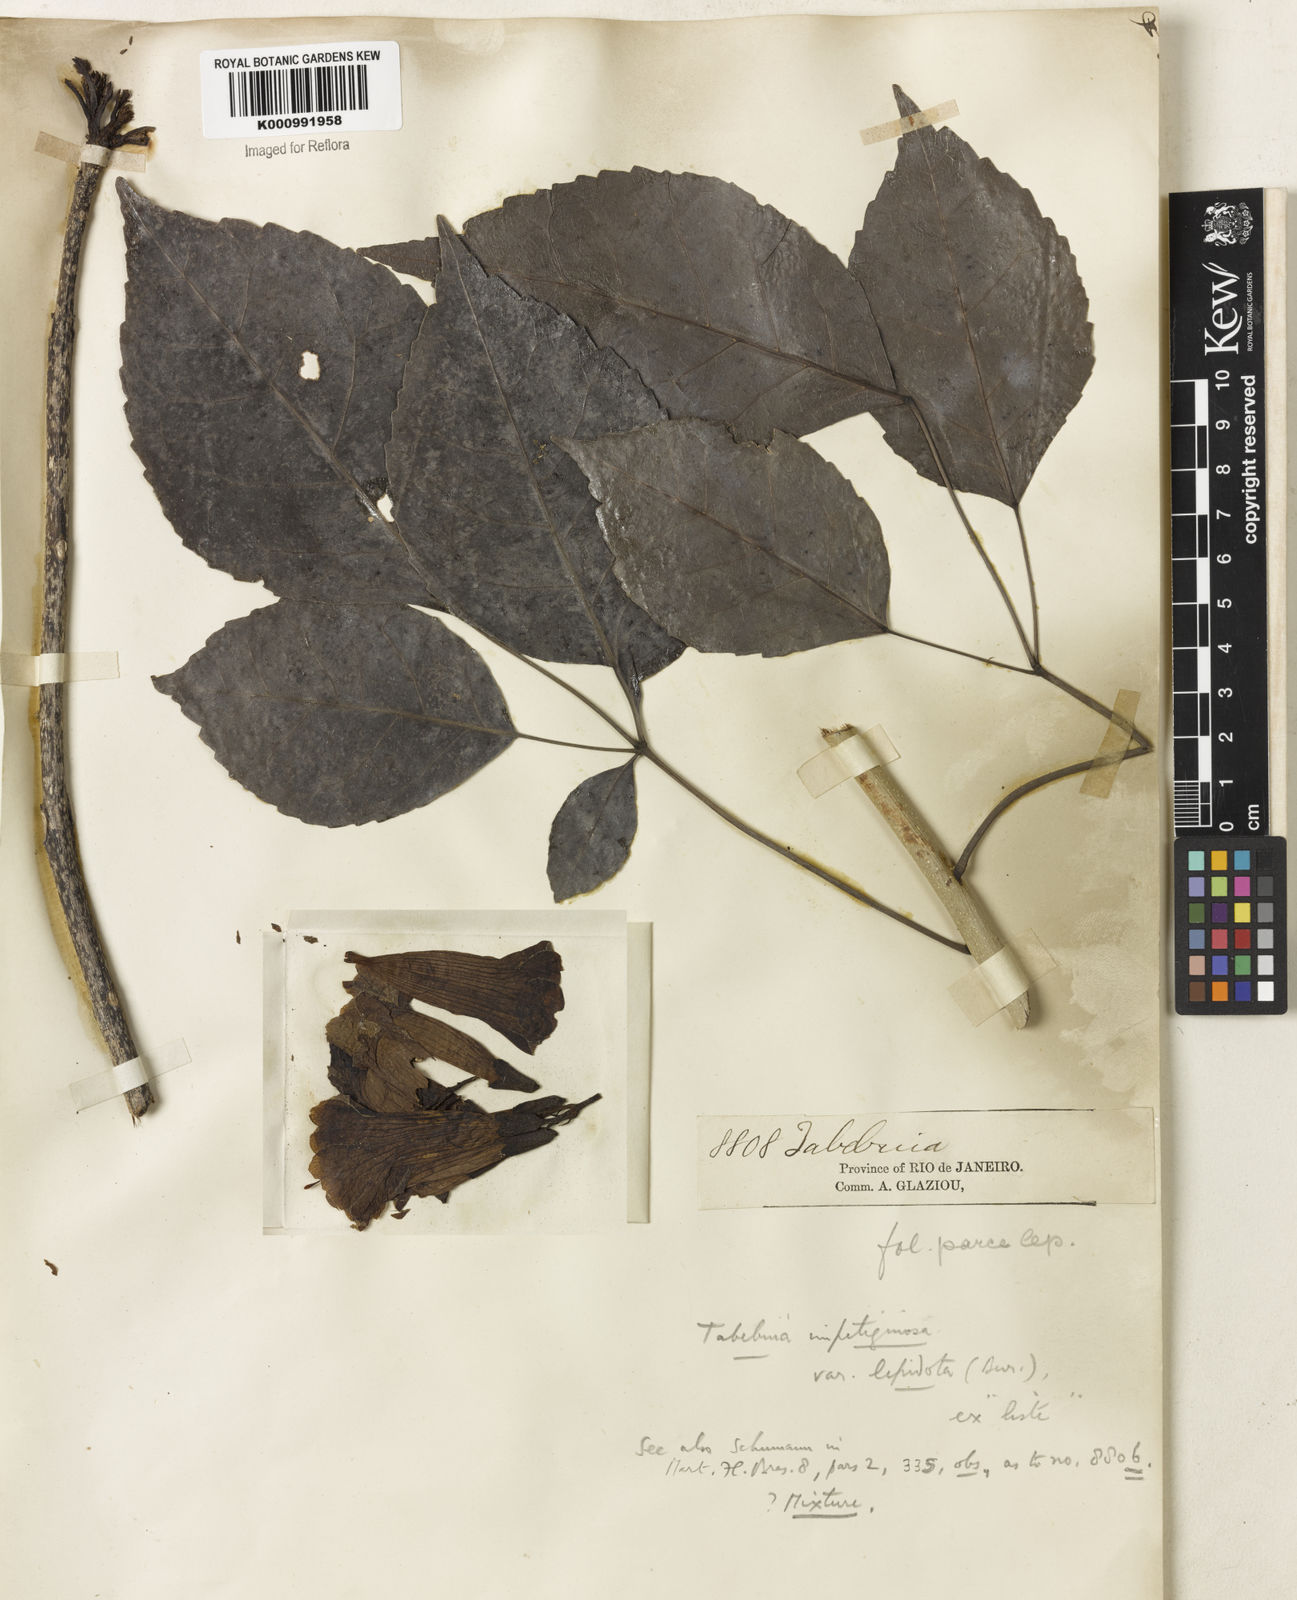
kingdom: Plantae
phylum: Tracheophyta
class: Magnoliopsida
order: Lamiales
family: Bignoniaceae
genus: Tabebuia
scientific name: Tabebuia roseoalba
